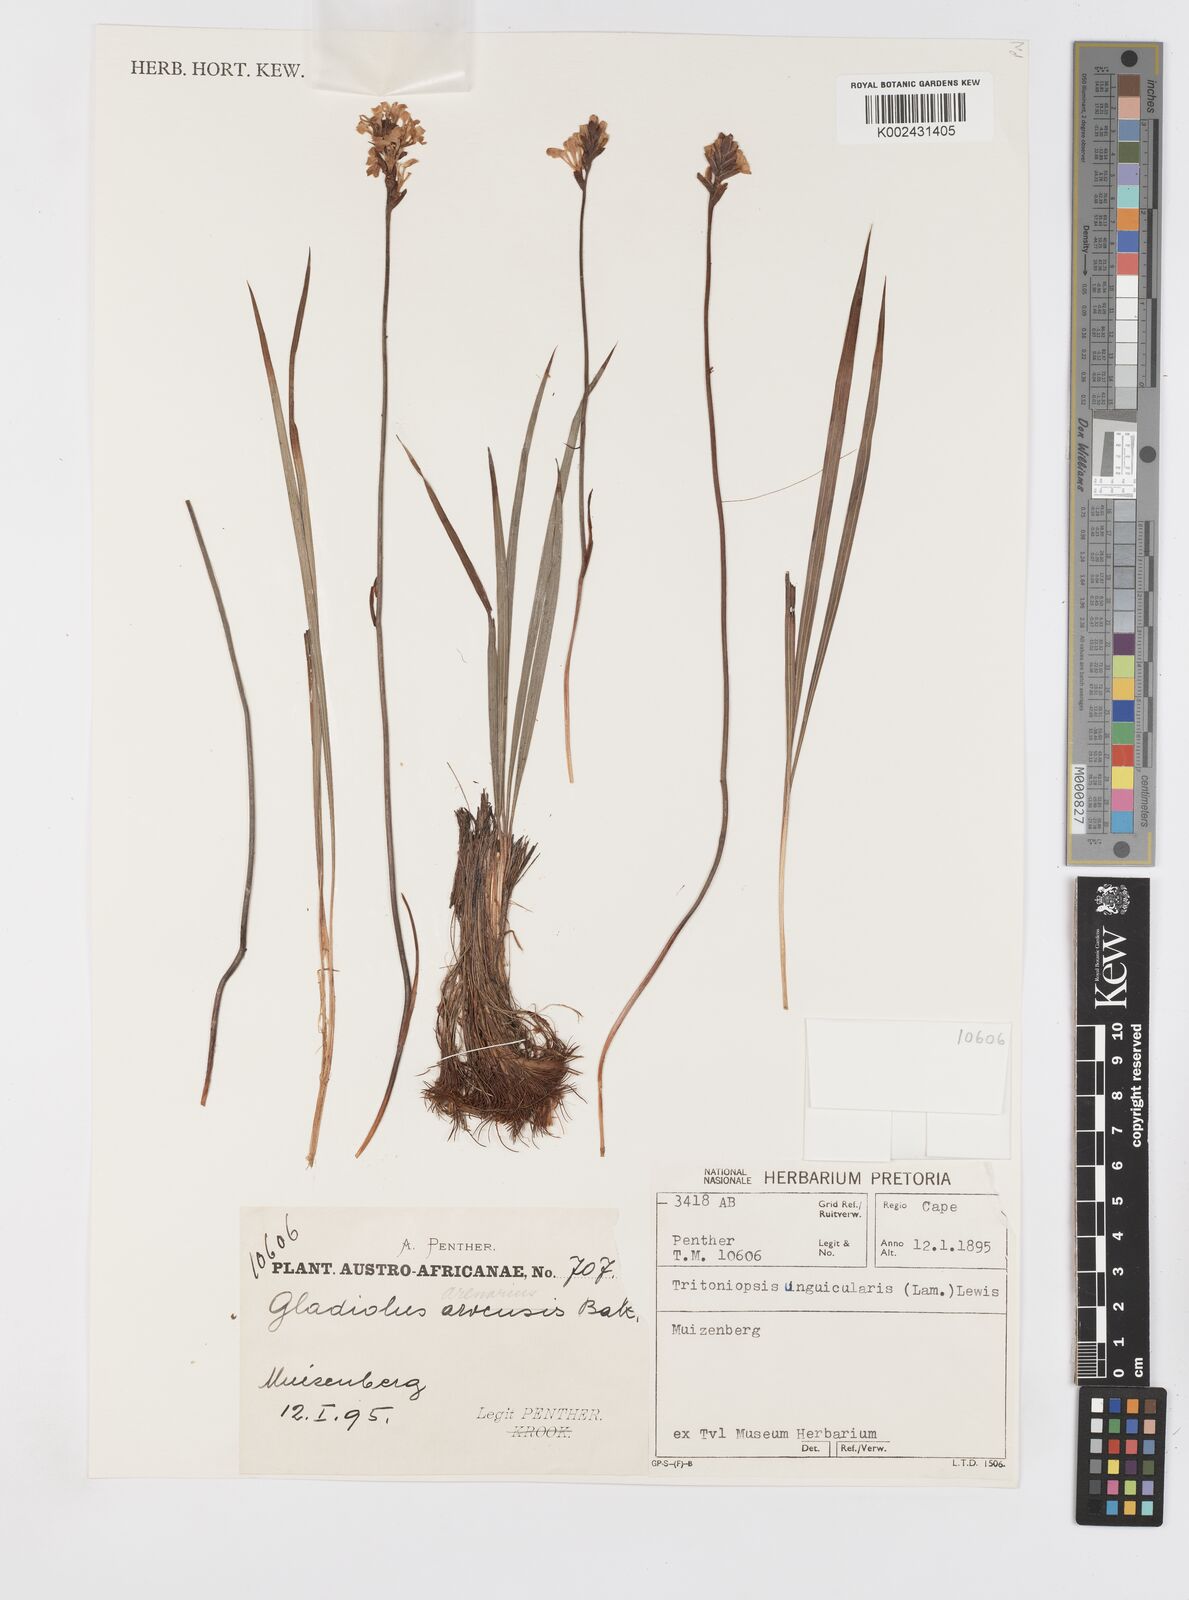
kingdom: Plantae
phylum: Tracheophyta
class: Liliopsida
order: Asparagales
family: Iridaceae
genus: Tritoniopsis
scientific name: Tritoniopsis unguicularis
